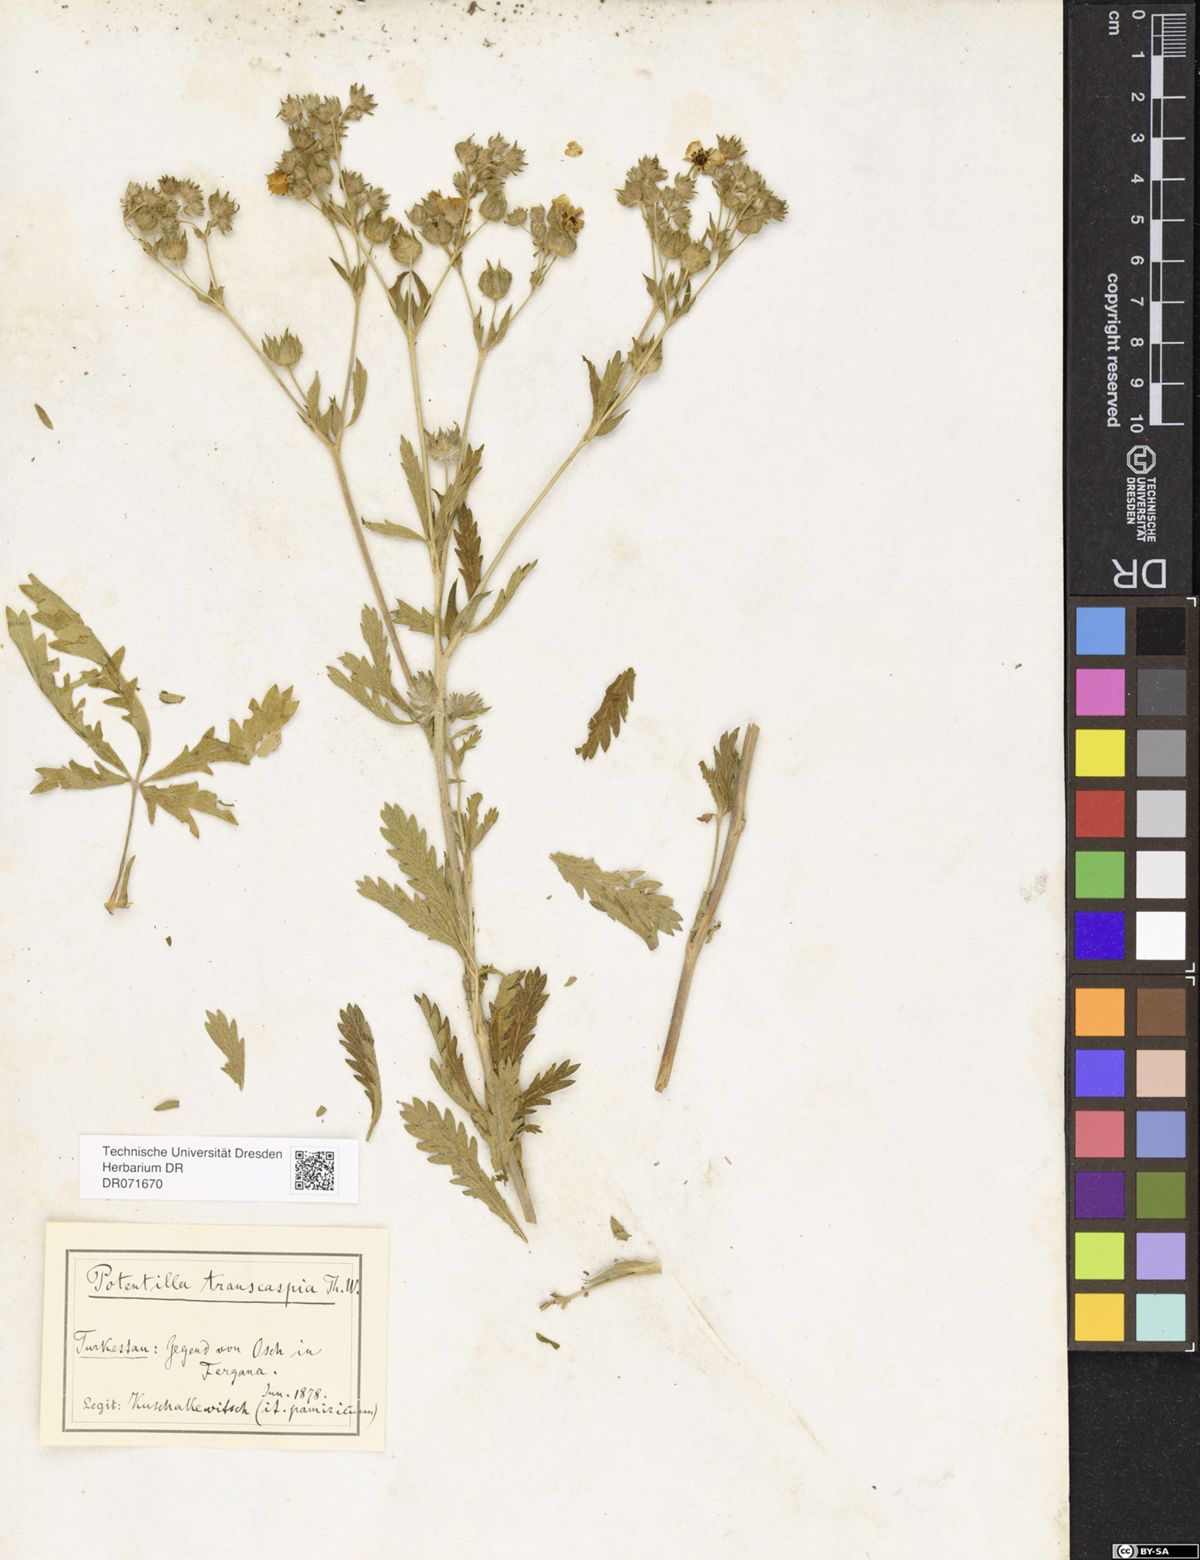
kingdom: Plantae
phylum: Tracheophyta
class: Magnoliopsida
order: Rosales
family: Rosaceae
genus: Potentilla
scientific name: Potentilla pedata
